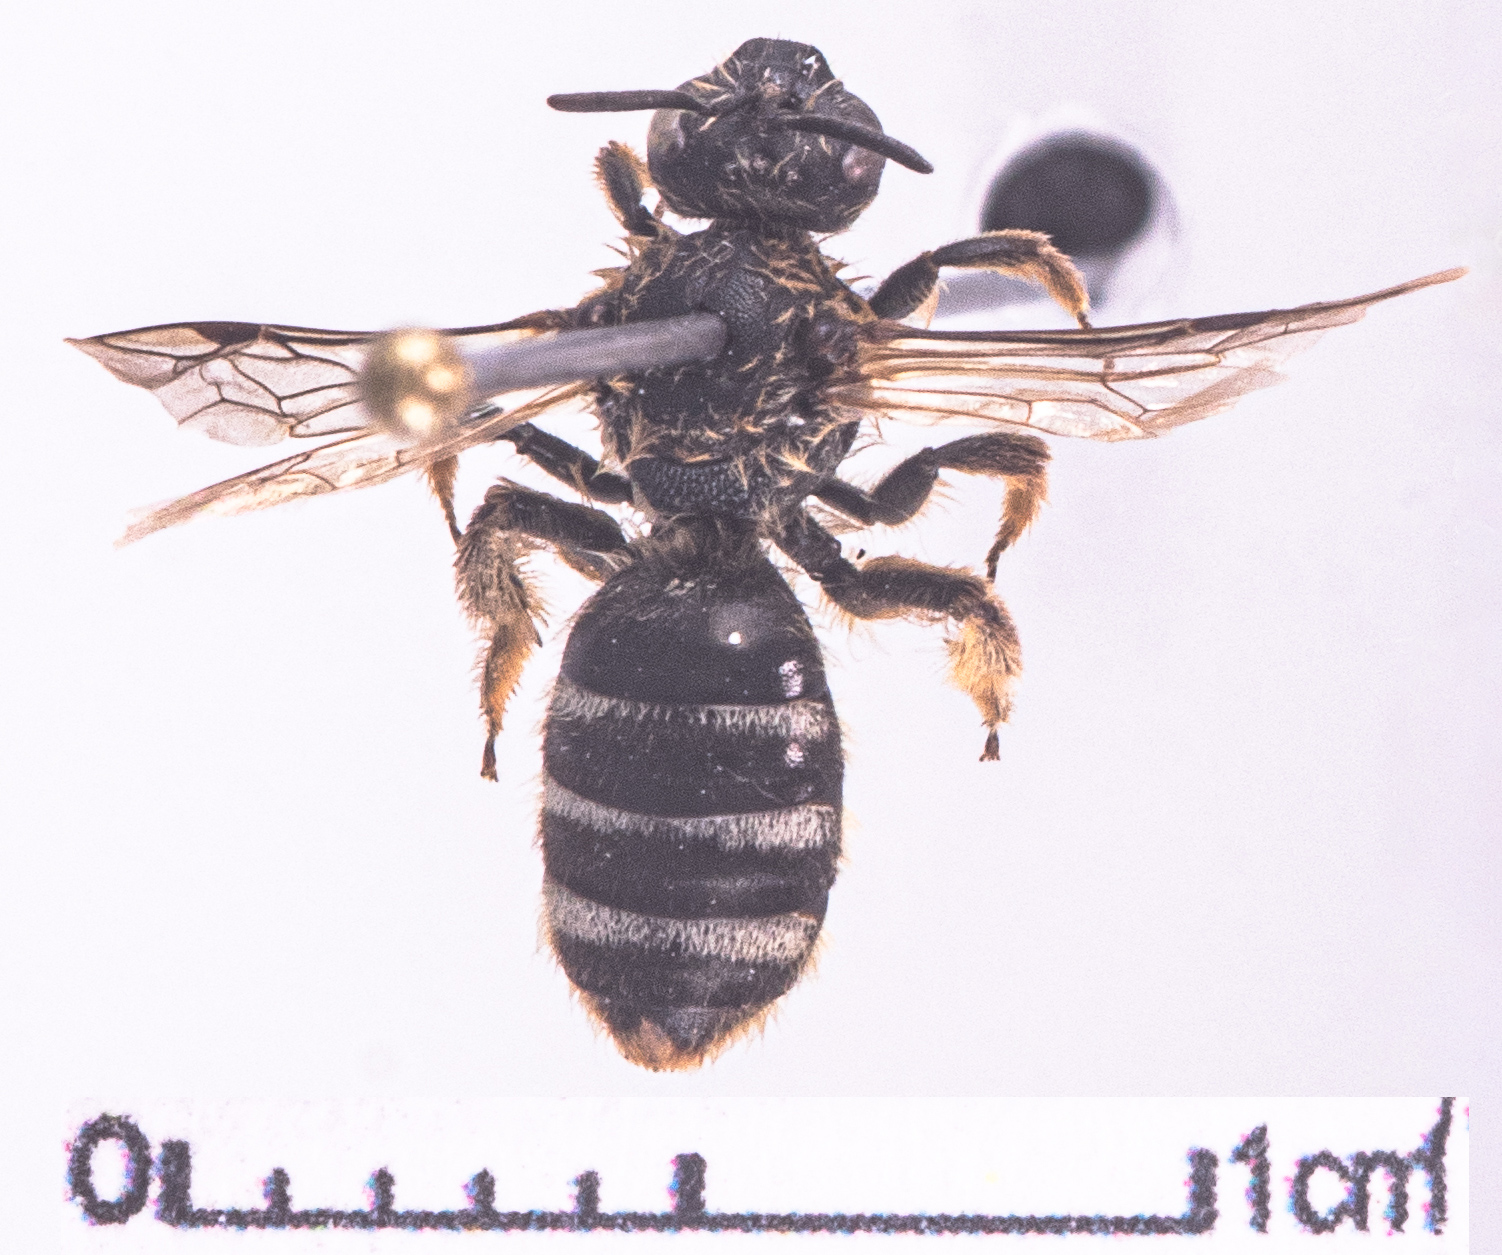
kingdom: Animalia
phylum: Arthropoda
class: Insecta
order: Hymenoptera
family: Halictidae
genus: Lasioglossum
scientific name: Lasioglossum leucozonium
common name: White-zoned furrow bee
